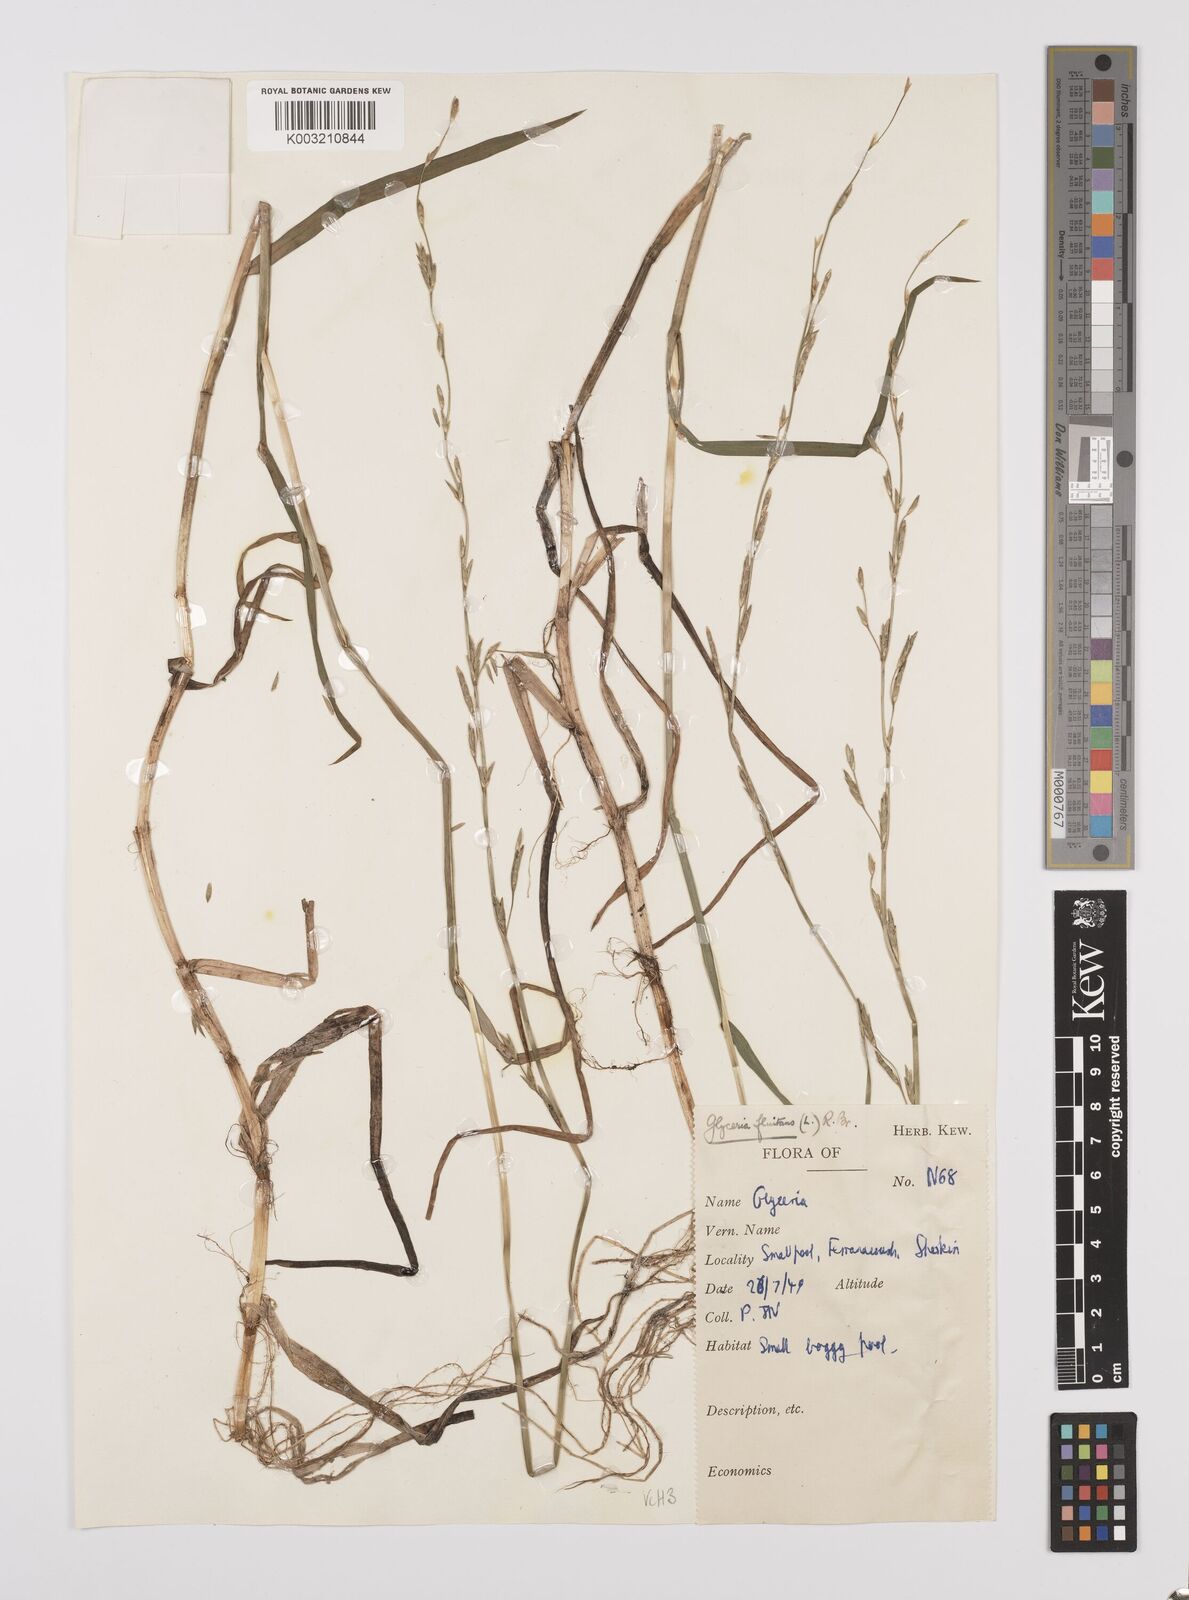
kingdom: Plantae
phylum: Tracheophyta
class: Liliopsida
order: Poales
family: Poaceae
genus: Glyceria
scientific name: Glyceria fluitans
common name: Floating sweet-grass
